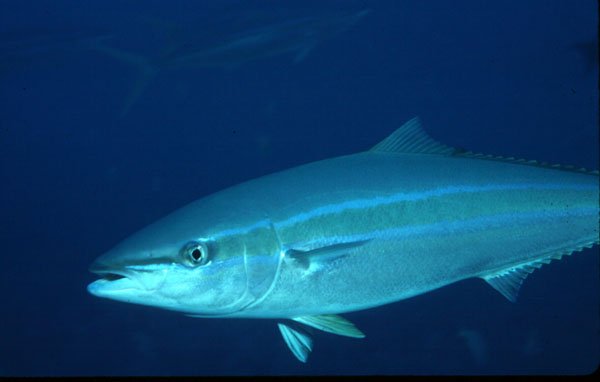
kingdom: Animalia
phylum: Chordata
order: Perciformes
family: Carangidae
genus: Elagatis
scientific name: Elagatis bipinnulata
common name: Rainbow runner
